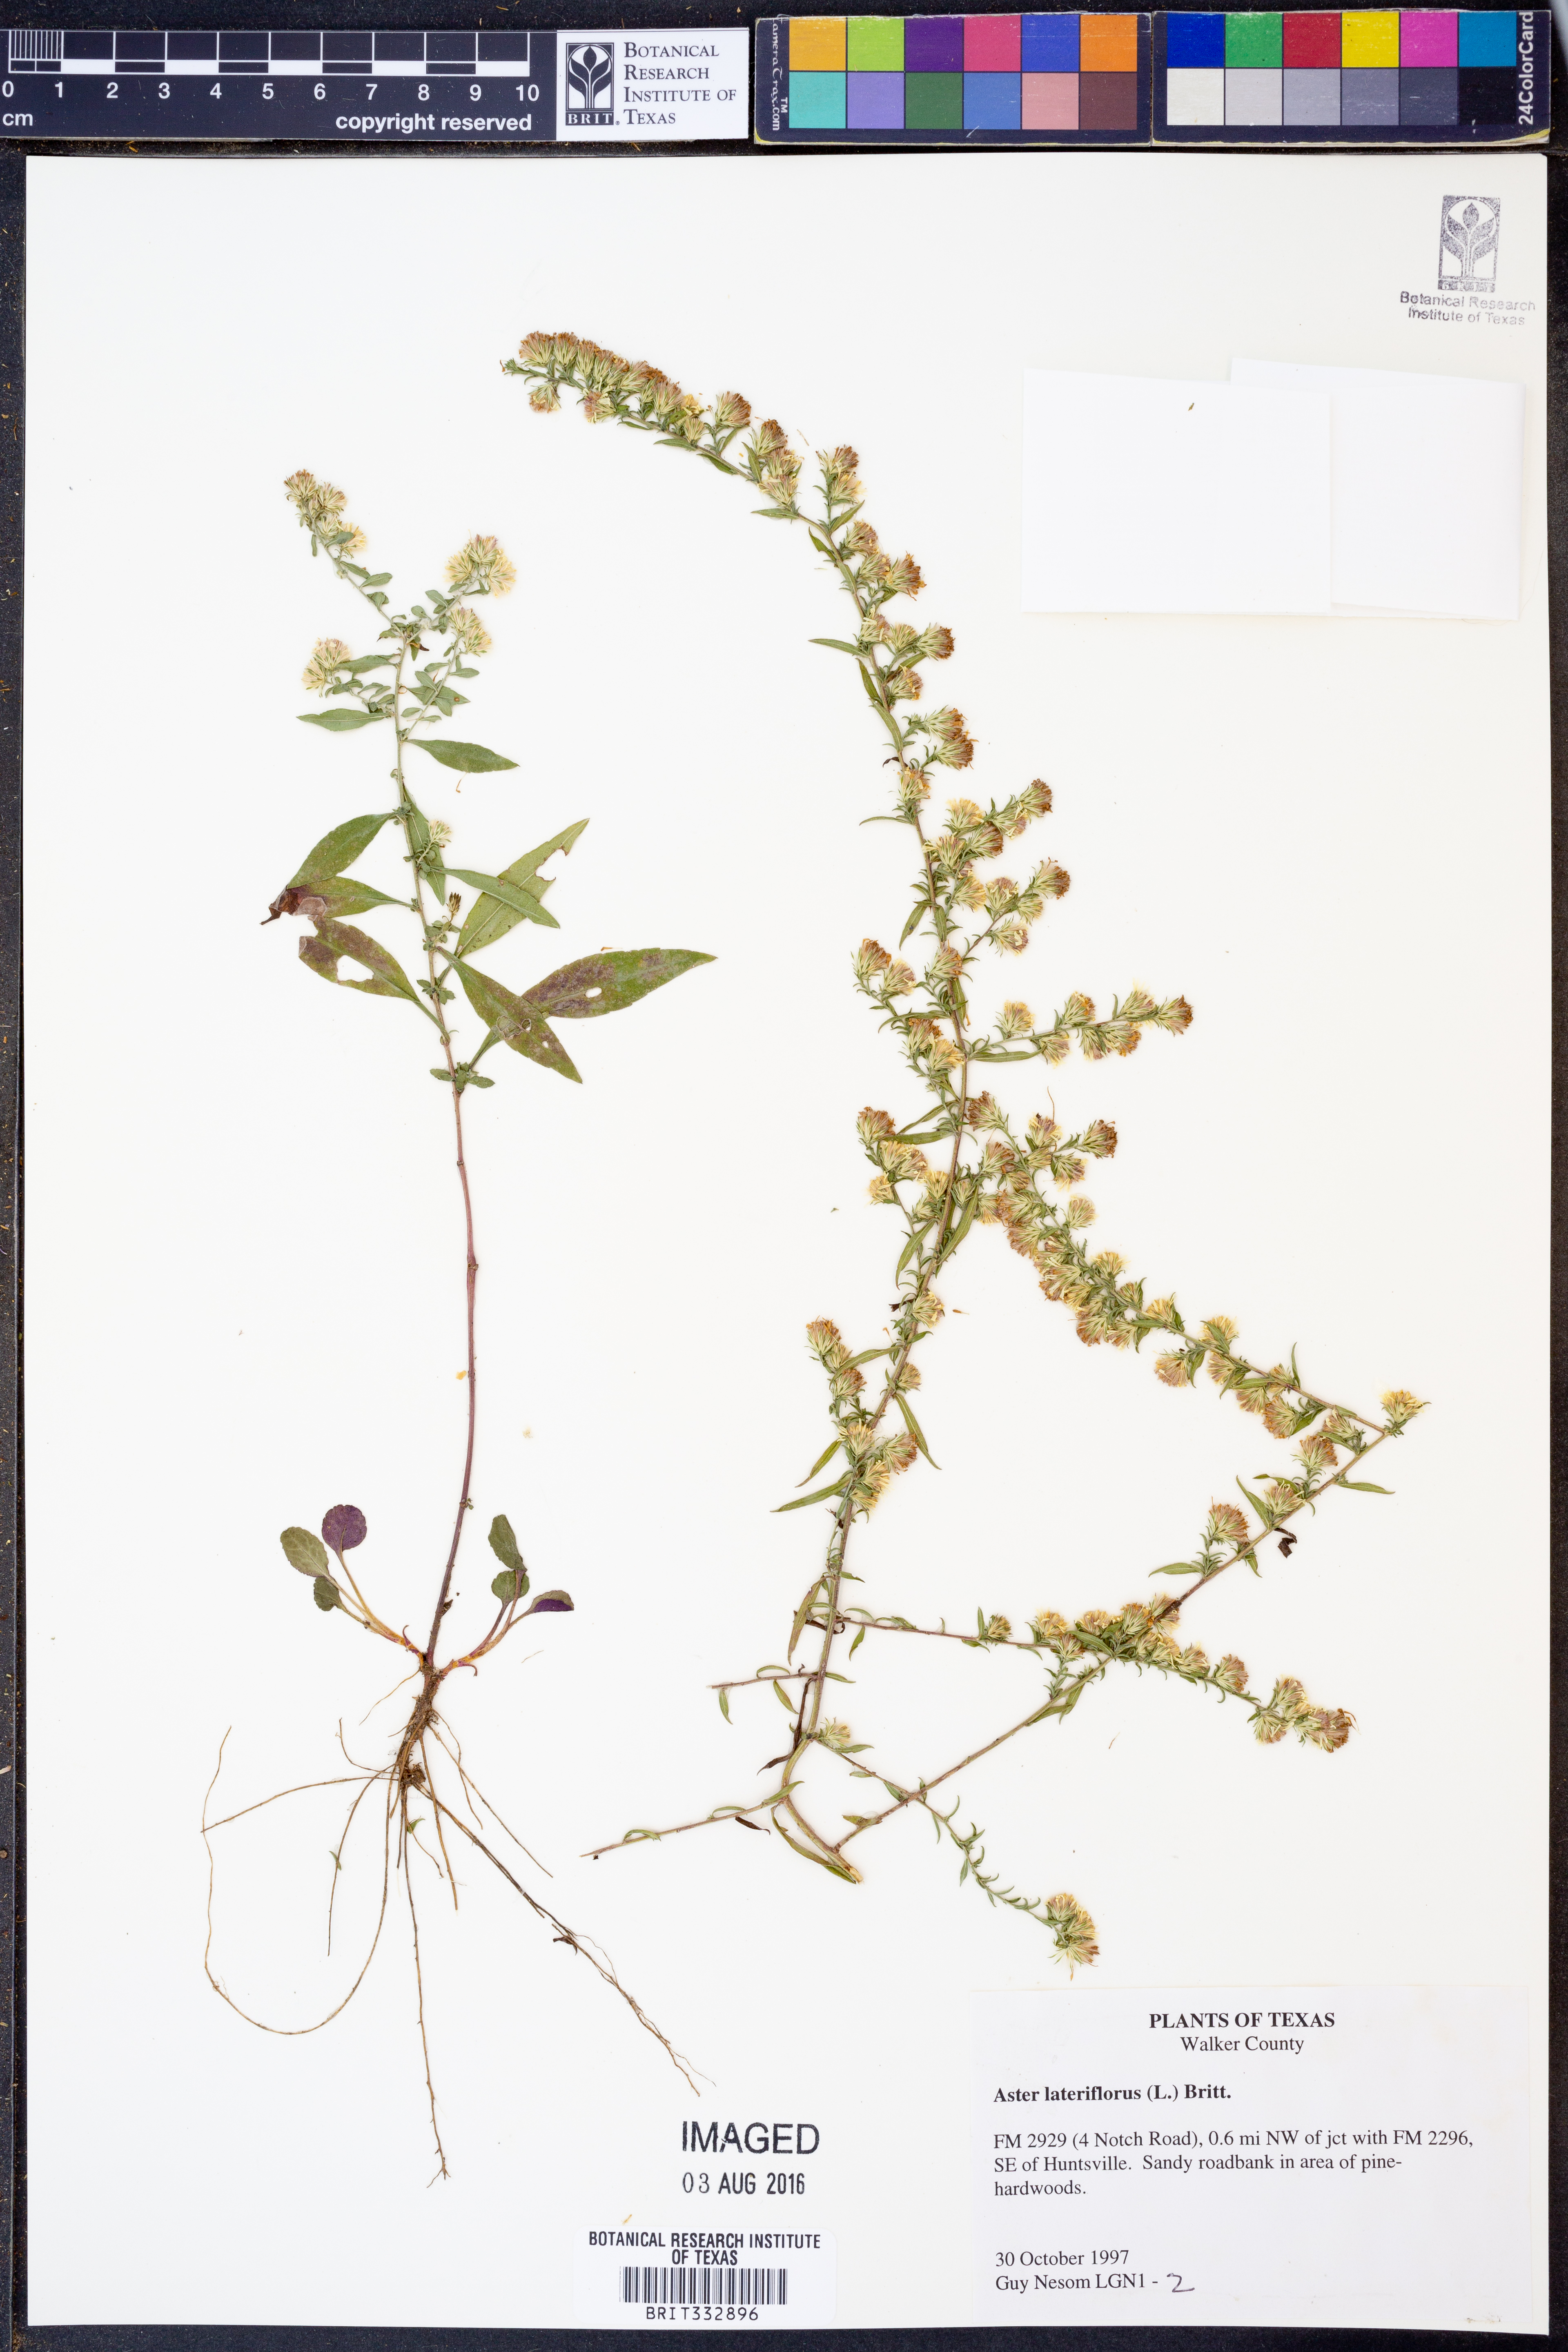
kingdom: Plantae
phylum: Tracheophyta
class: Magnoliopsida
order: Asterales
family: Asteraceae
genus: Symphyotrichum
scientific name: Symphyotrichum lateriflorum
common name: Calico aster
